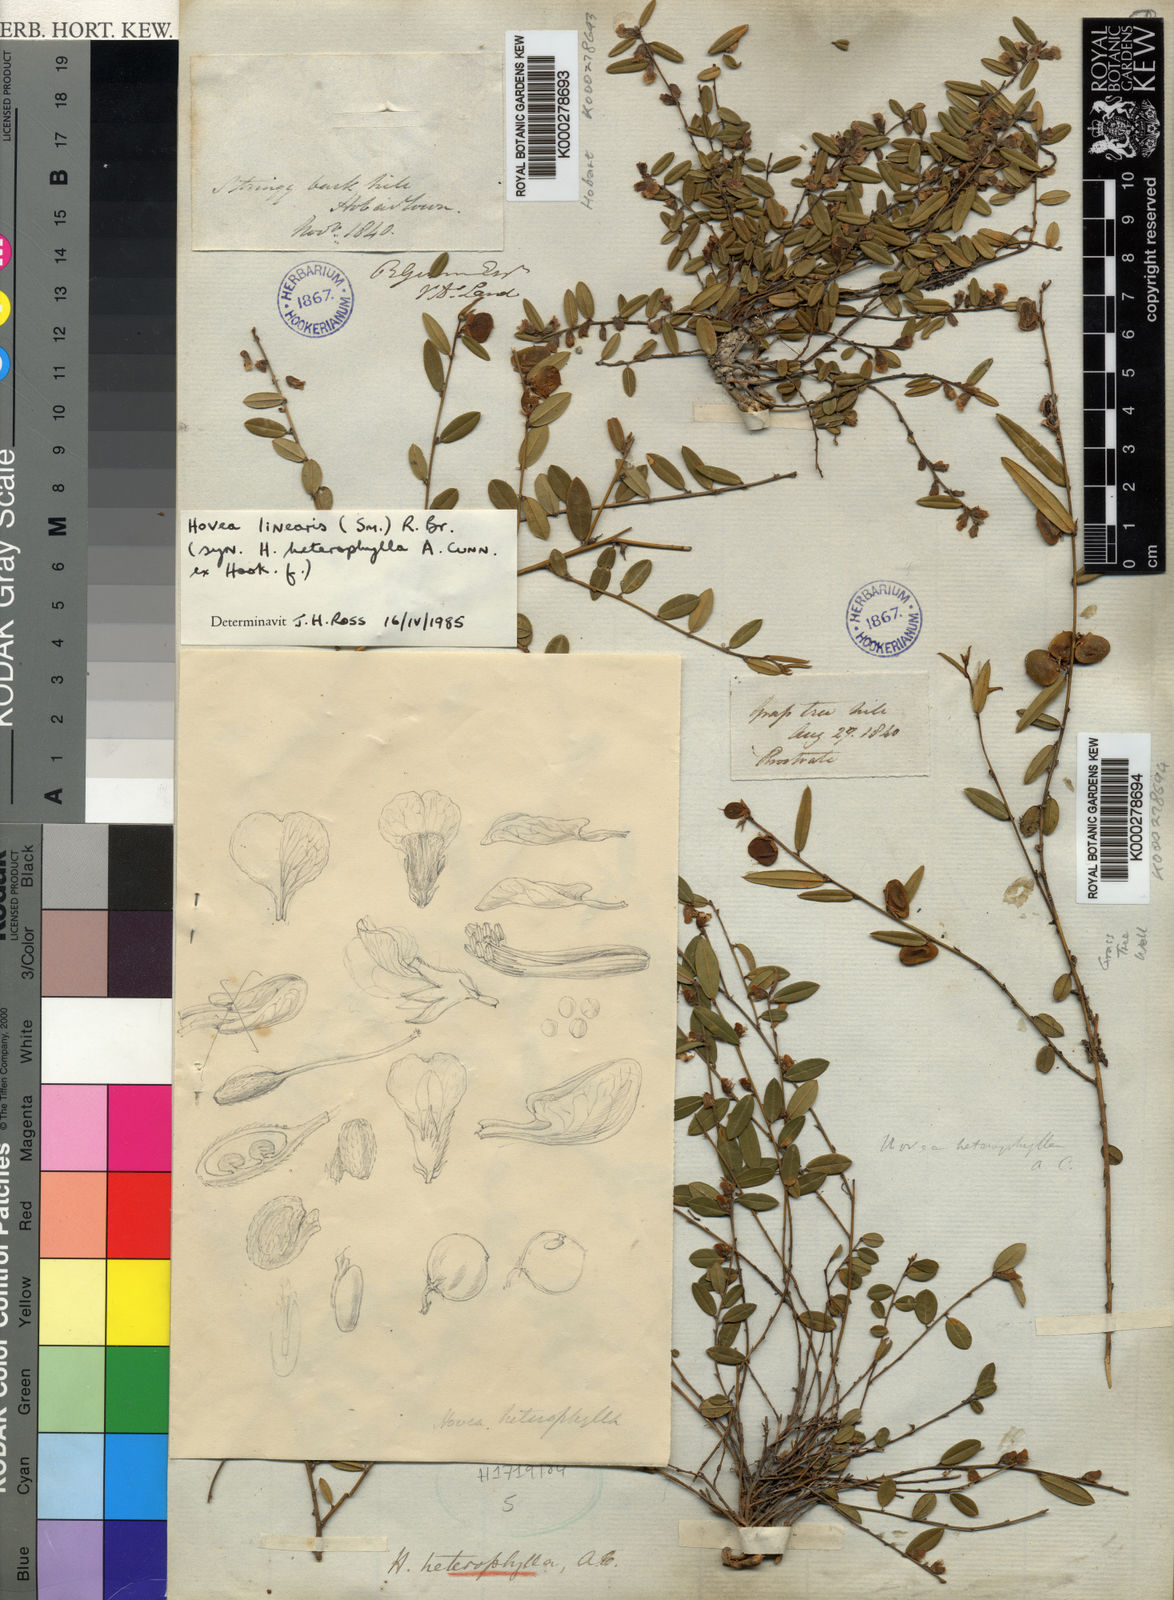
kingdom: Plantae
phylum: Tracheophyta
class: Magnoliopsida
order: Fabales
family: Fabaceae
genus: Hovea
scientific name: Hovea heterophylla
